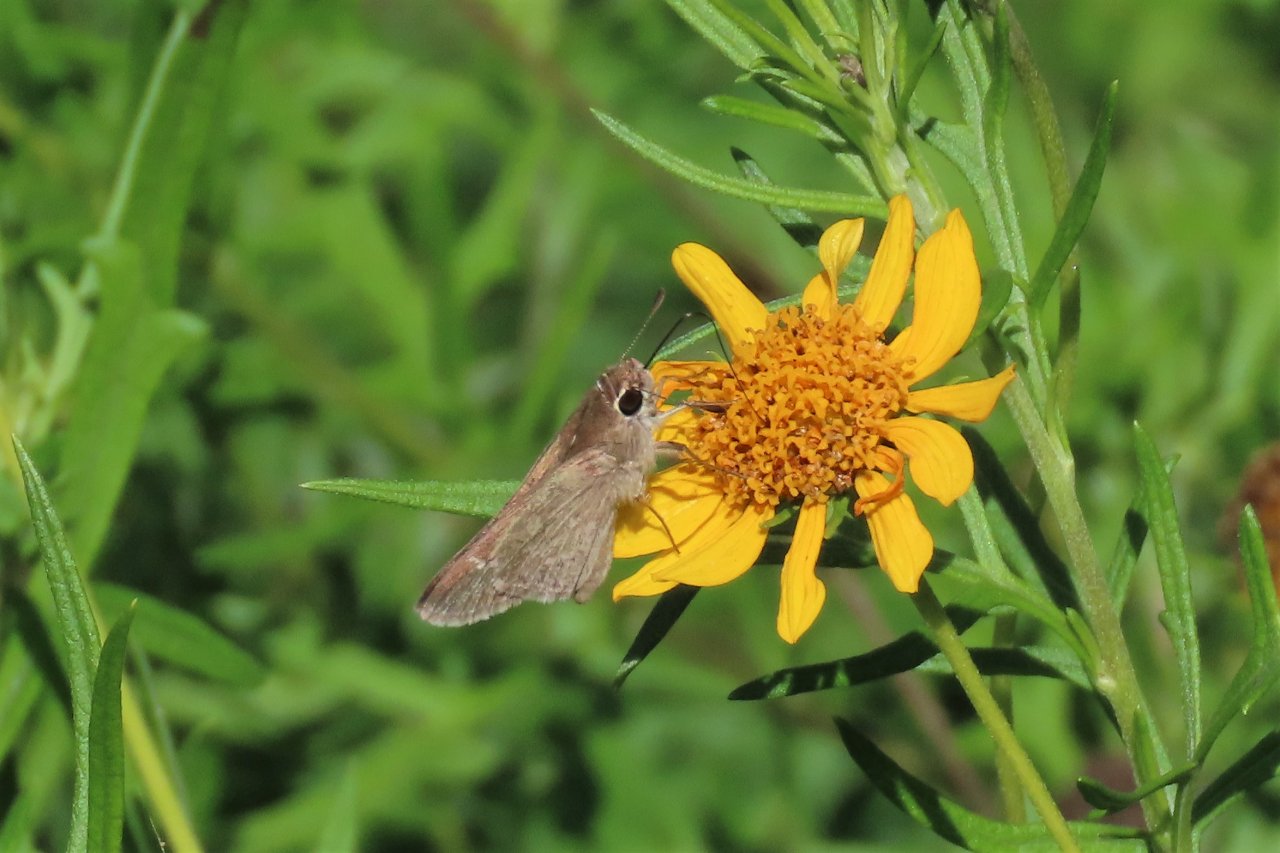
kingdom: Animalia
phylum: Arthropoda
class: Insecta
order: Lepidoptera
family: Hesperiidae
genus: Lerodea
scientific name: Lerodea eufala
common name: Eufala Skipper
